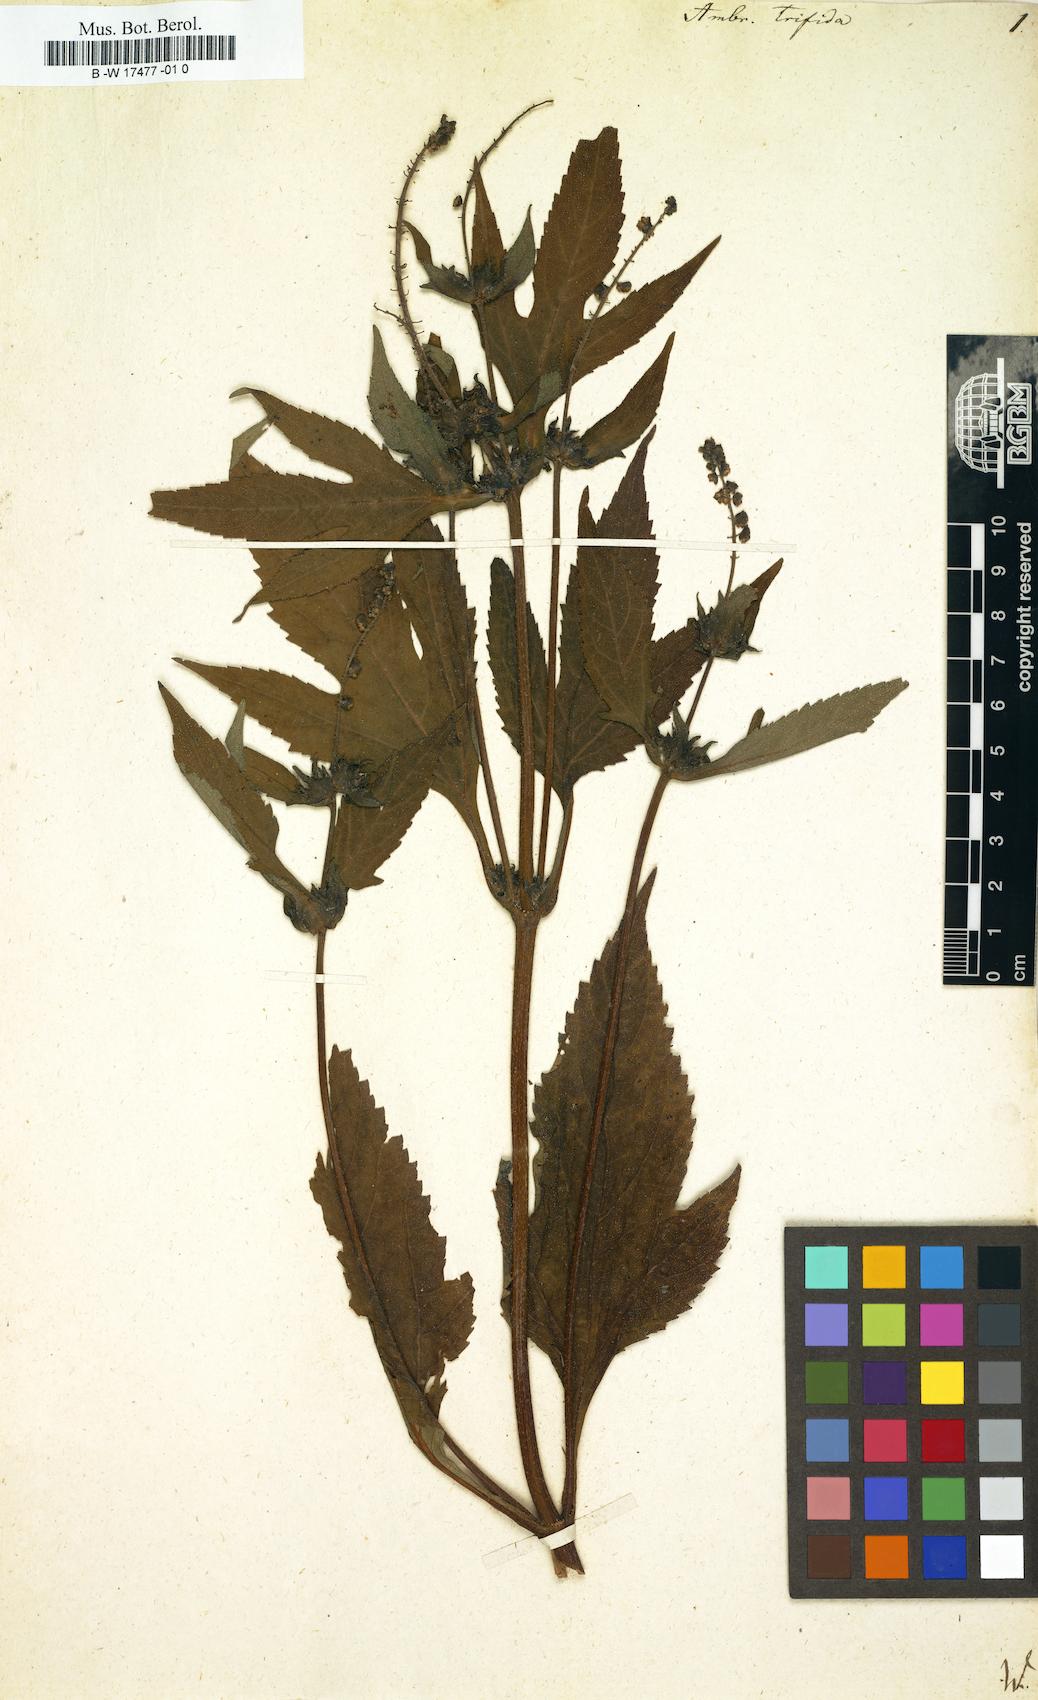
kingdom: Plantae
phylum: Tracheophyta
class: Magnoliopsida
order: Asterales
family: Asteraceae
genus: Ambrosia
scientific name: Ambrosia trifida
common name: Giant ragweed
